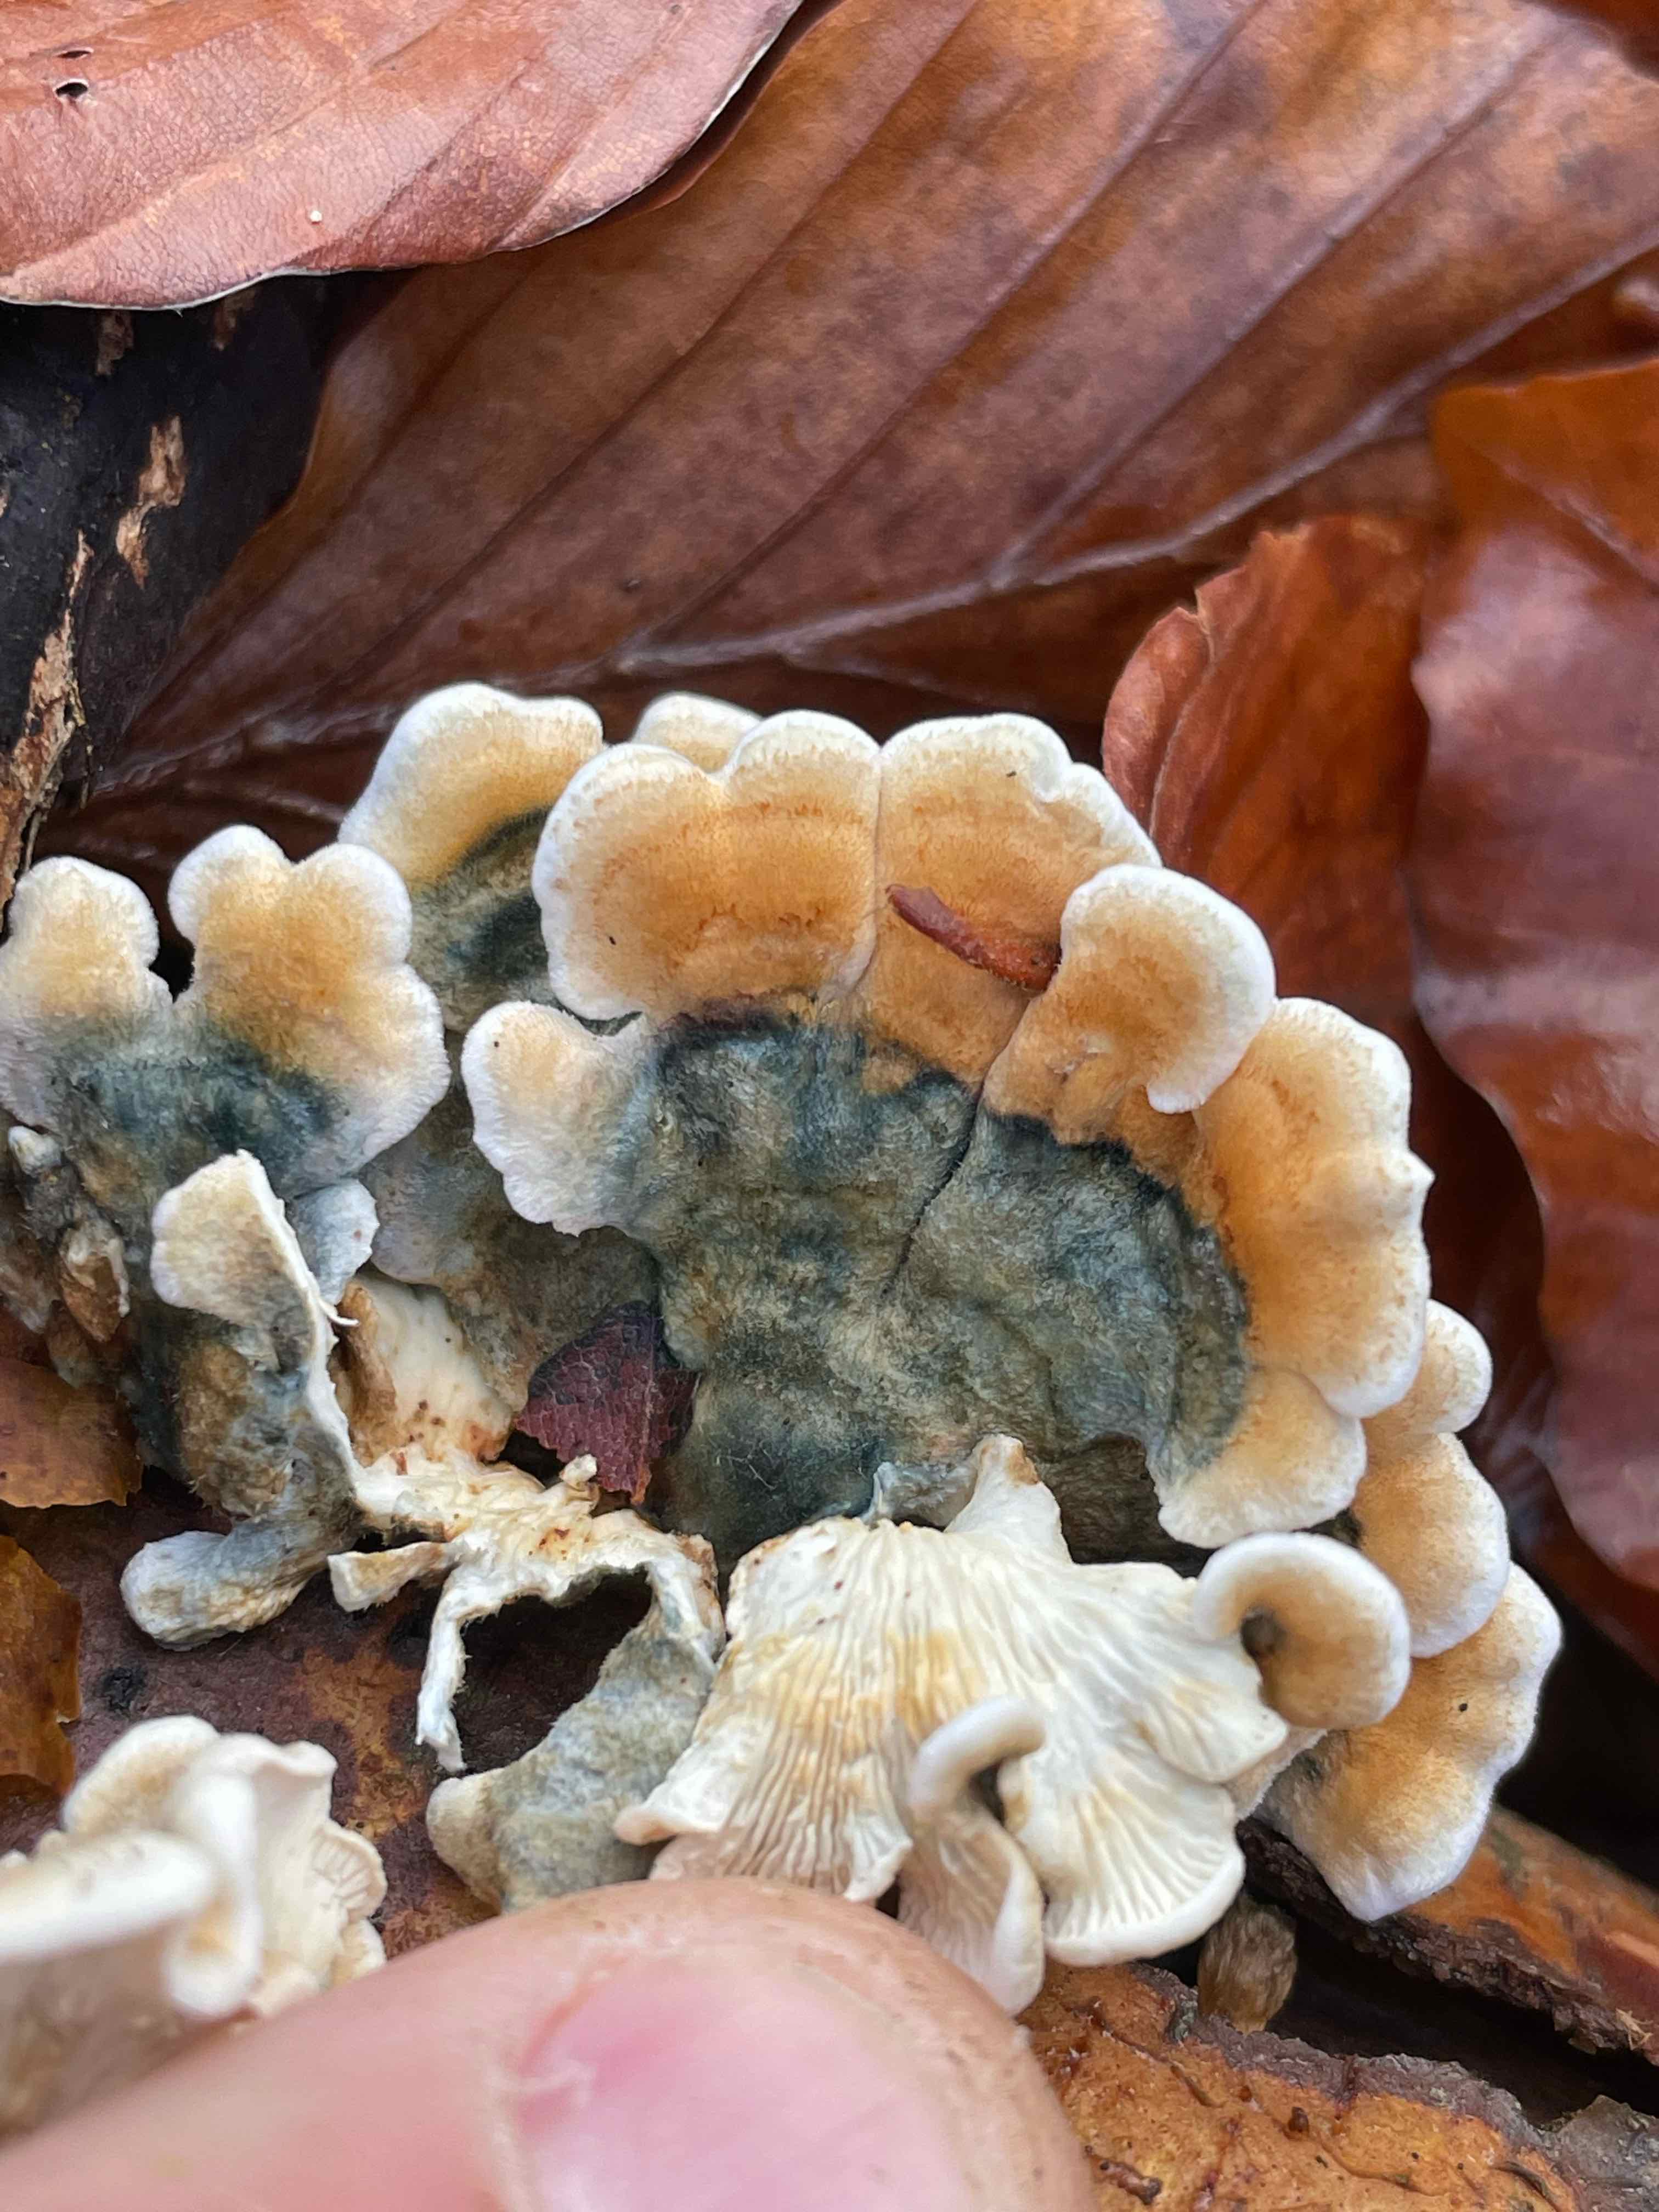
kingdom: Fungi
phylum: Basidiomycota
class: Agaricomycetes
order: Amylocorticiales
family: Amylocorticiaceae
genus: Plicaturopsis
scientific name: Plicaturopsis crispa
